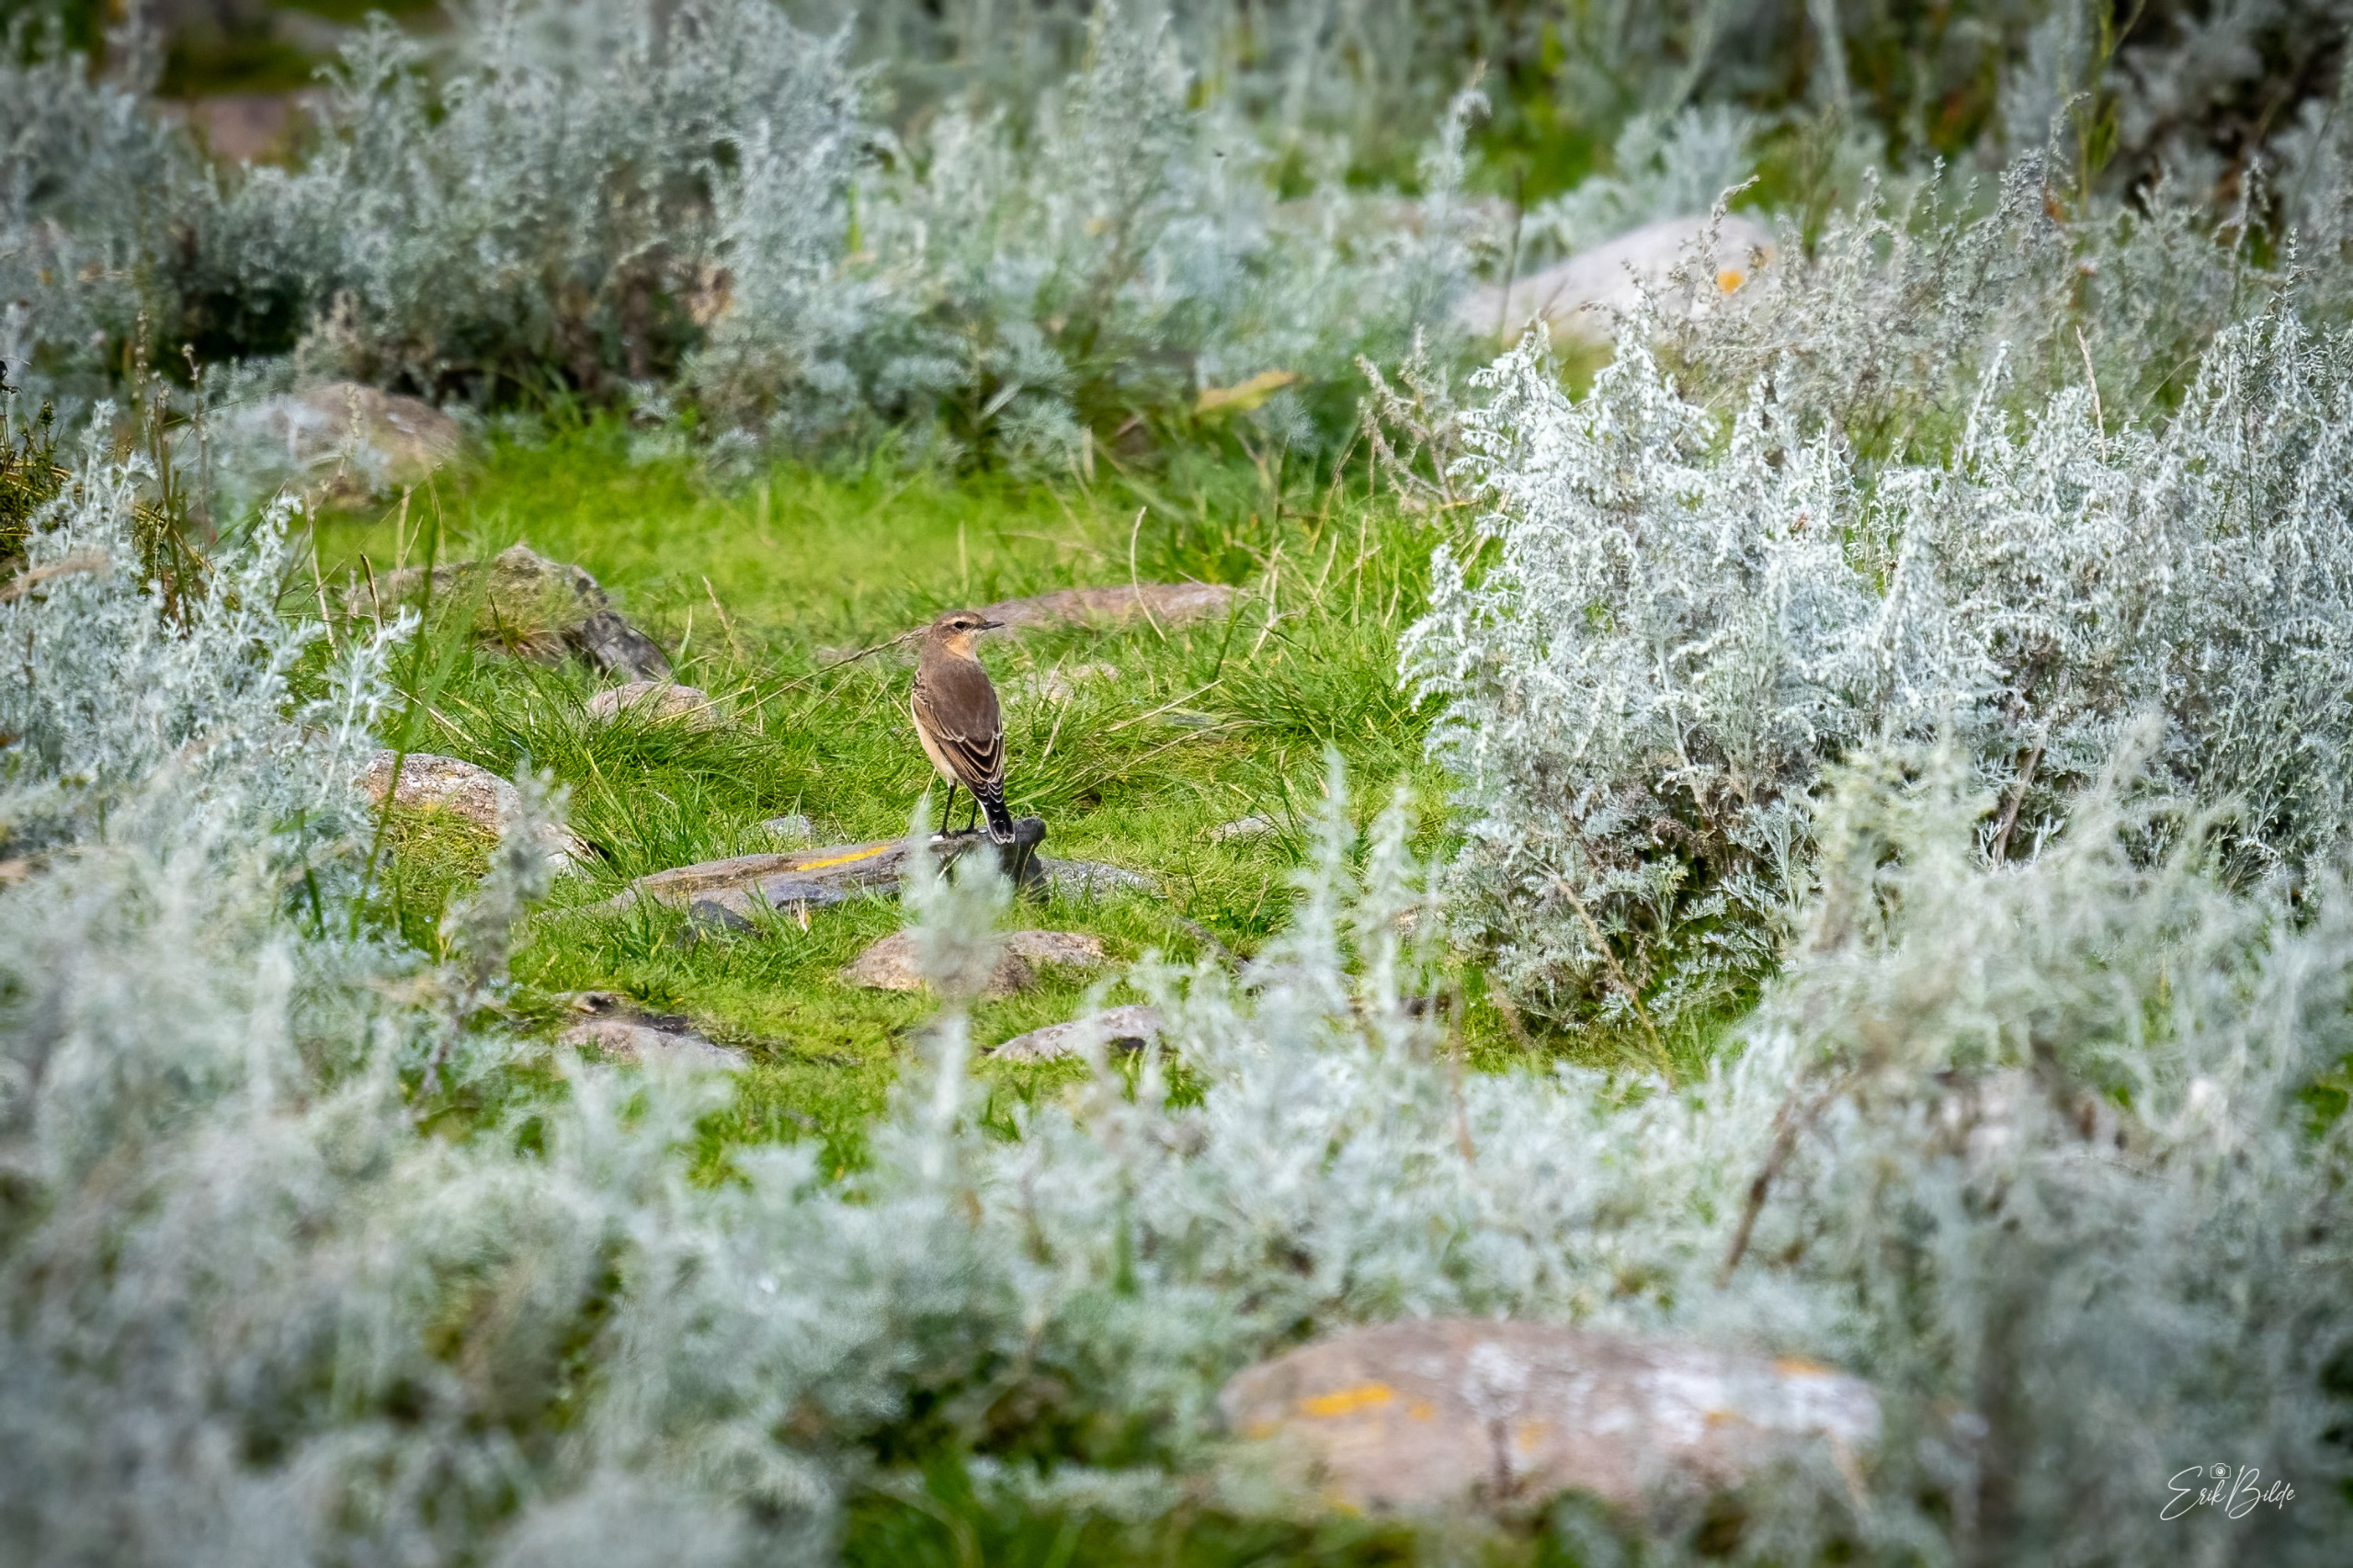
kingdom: Animalia
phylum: Chordata
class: Aves
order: Passeriformes
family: Muscicapidae
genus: Oenanthe
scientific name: Oenanthe oenanthe
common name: Stenpikker
